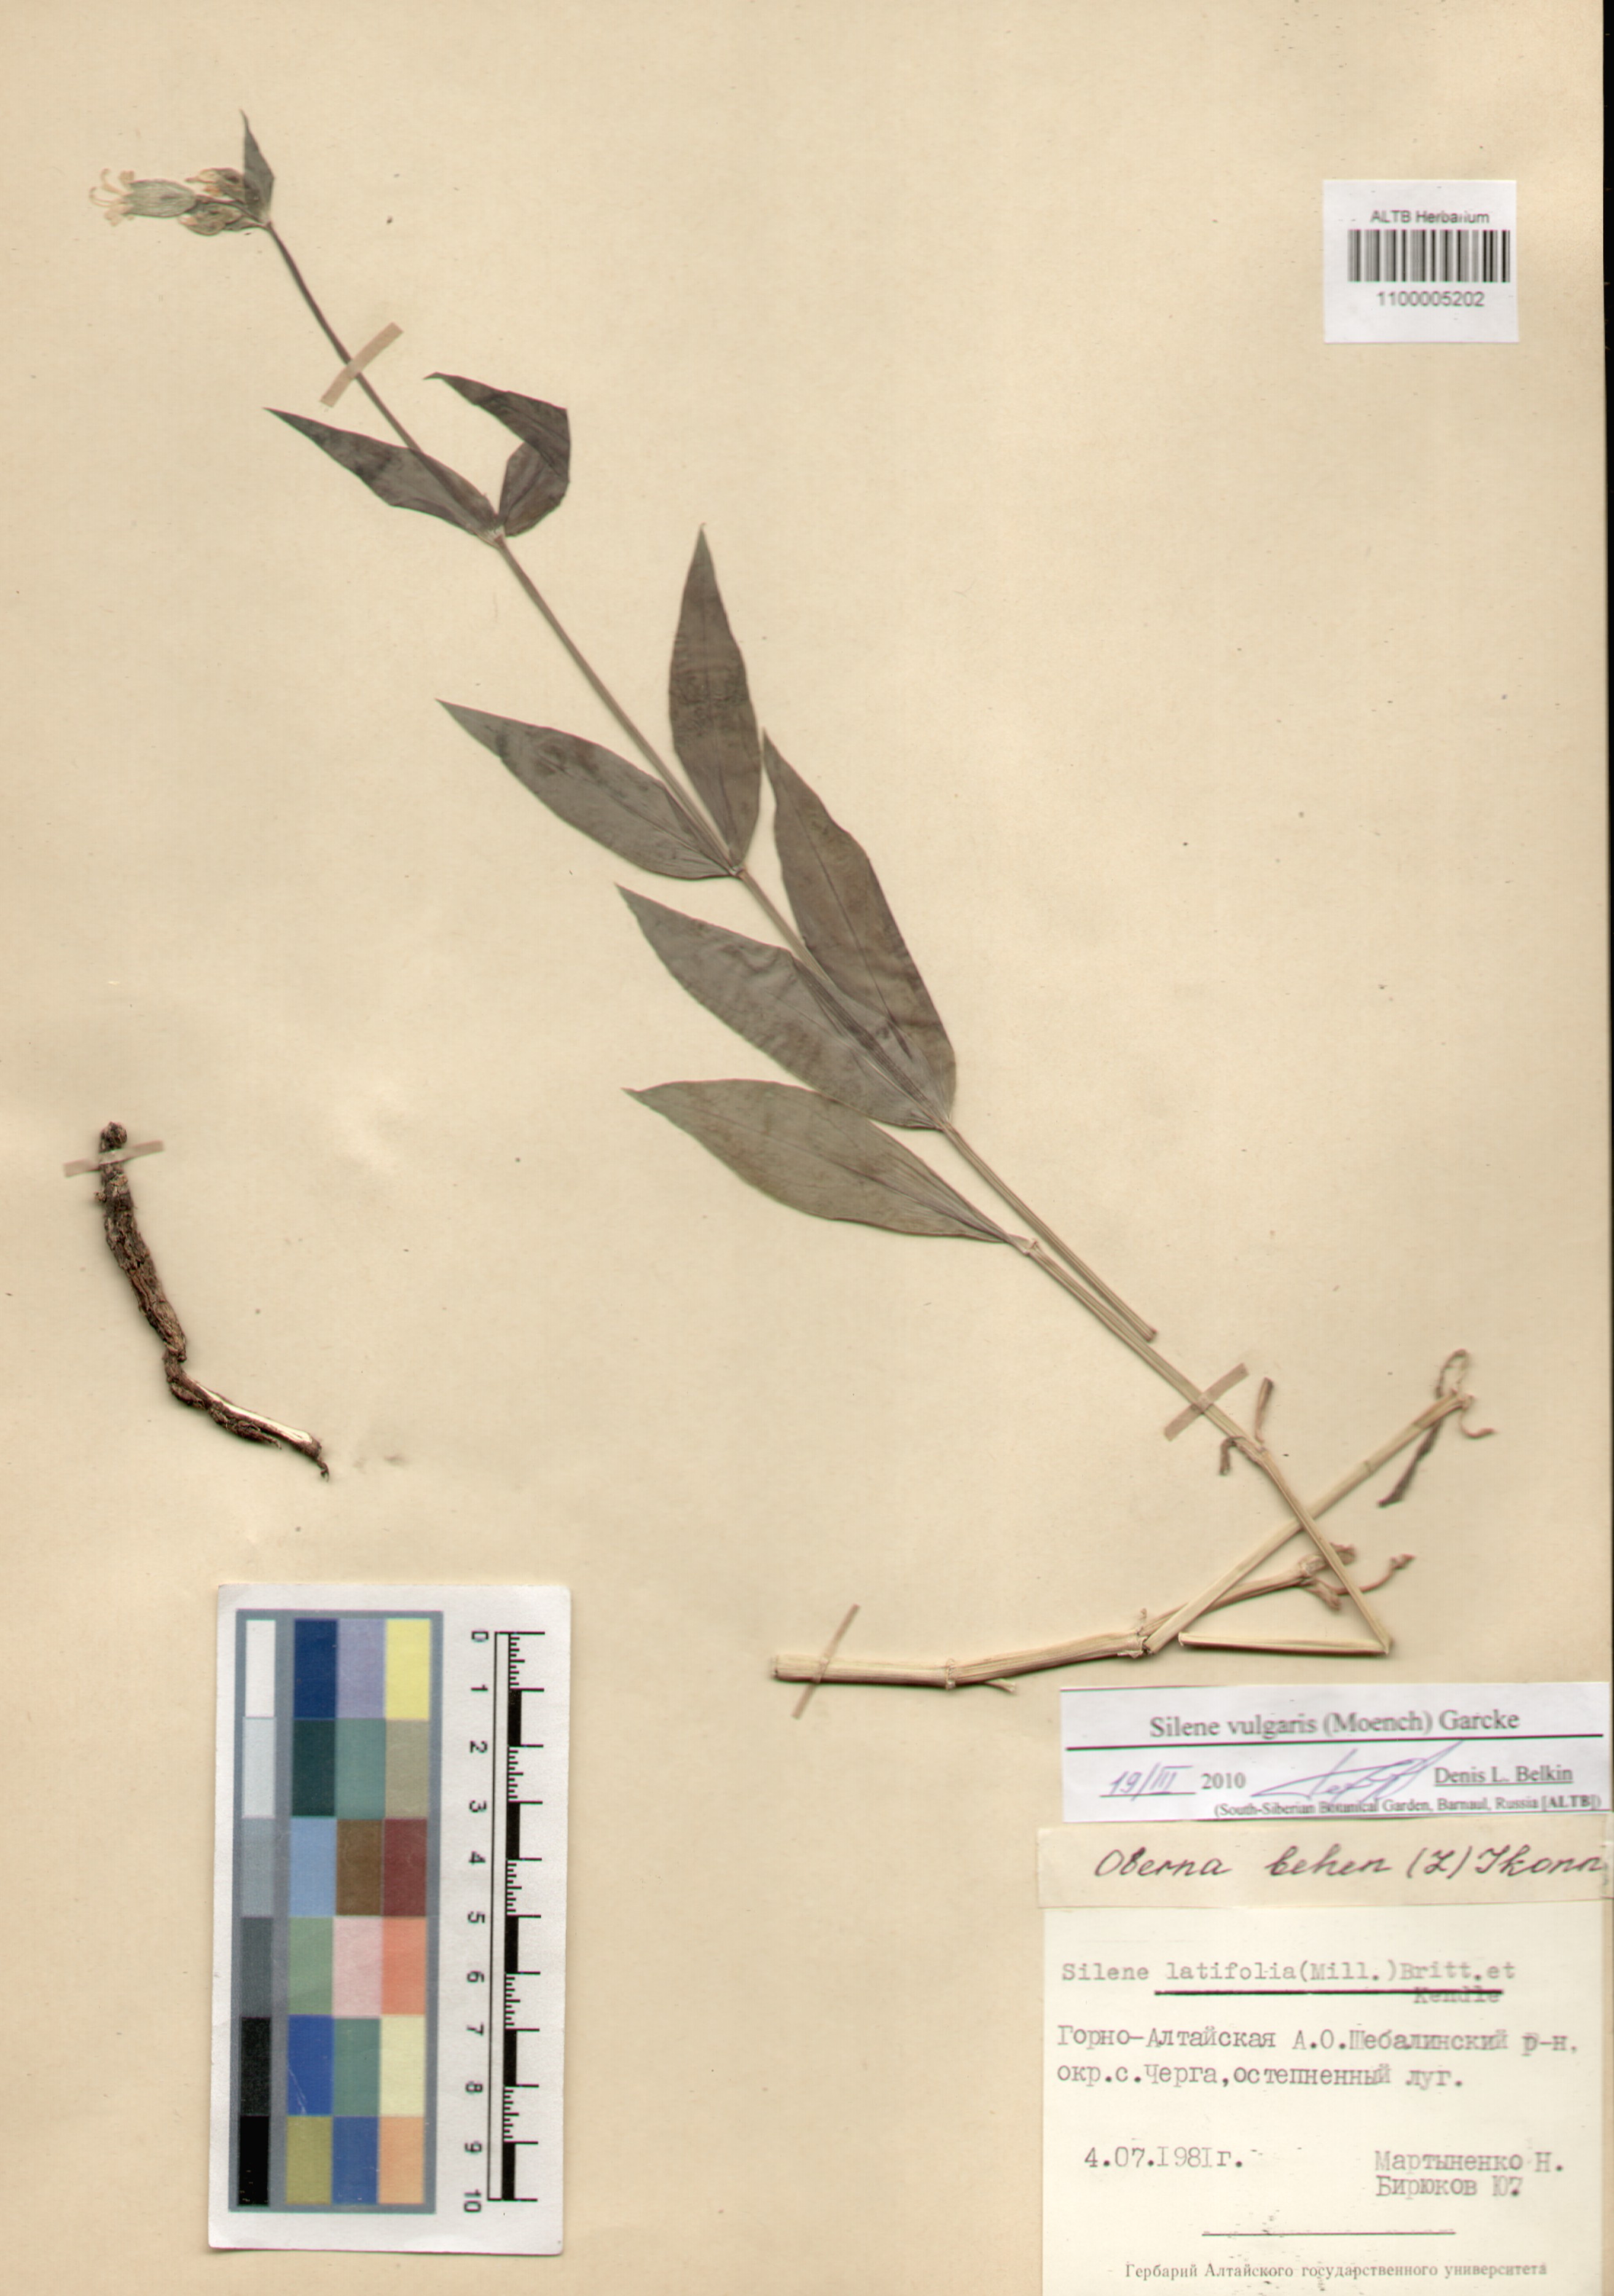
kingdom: Plantae
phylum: Tracheophyta
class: Magnoliopsida
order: Caryophyllales
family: Caryophyllaceae
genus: Silene
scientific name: Silene vulgaris
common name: Bladder campion
